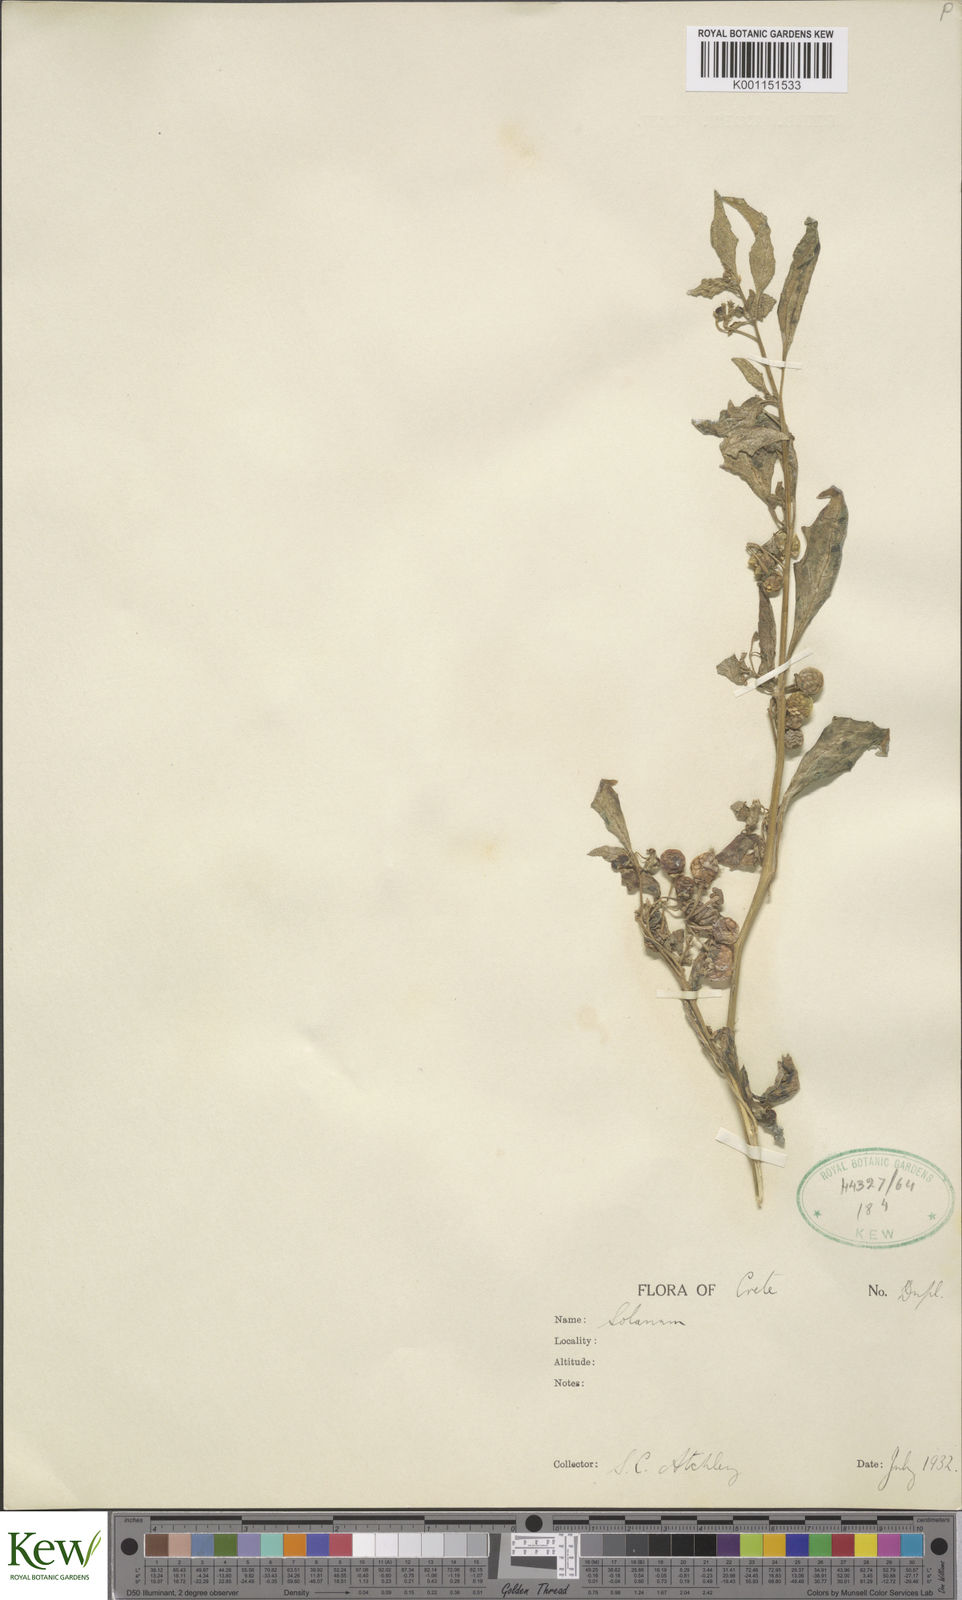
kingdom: Plantae
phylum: Tracheophyta
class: Magnoliopsida
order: Solanales
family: Solanaceae
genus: Solanum
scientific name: Solanum villosum
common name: Red nightshade
